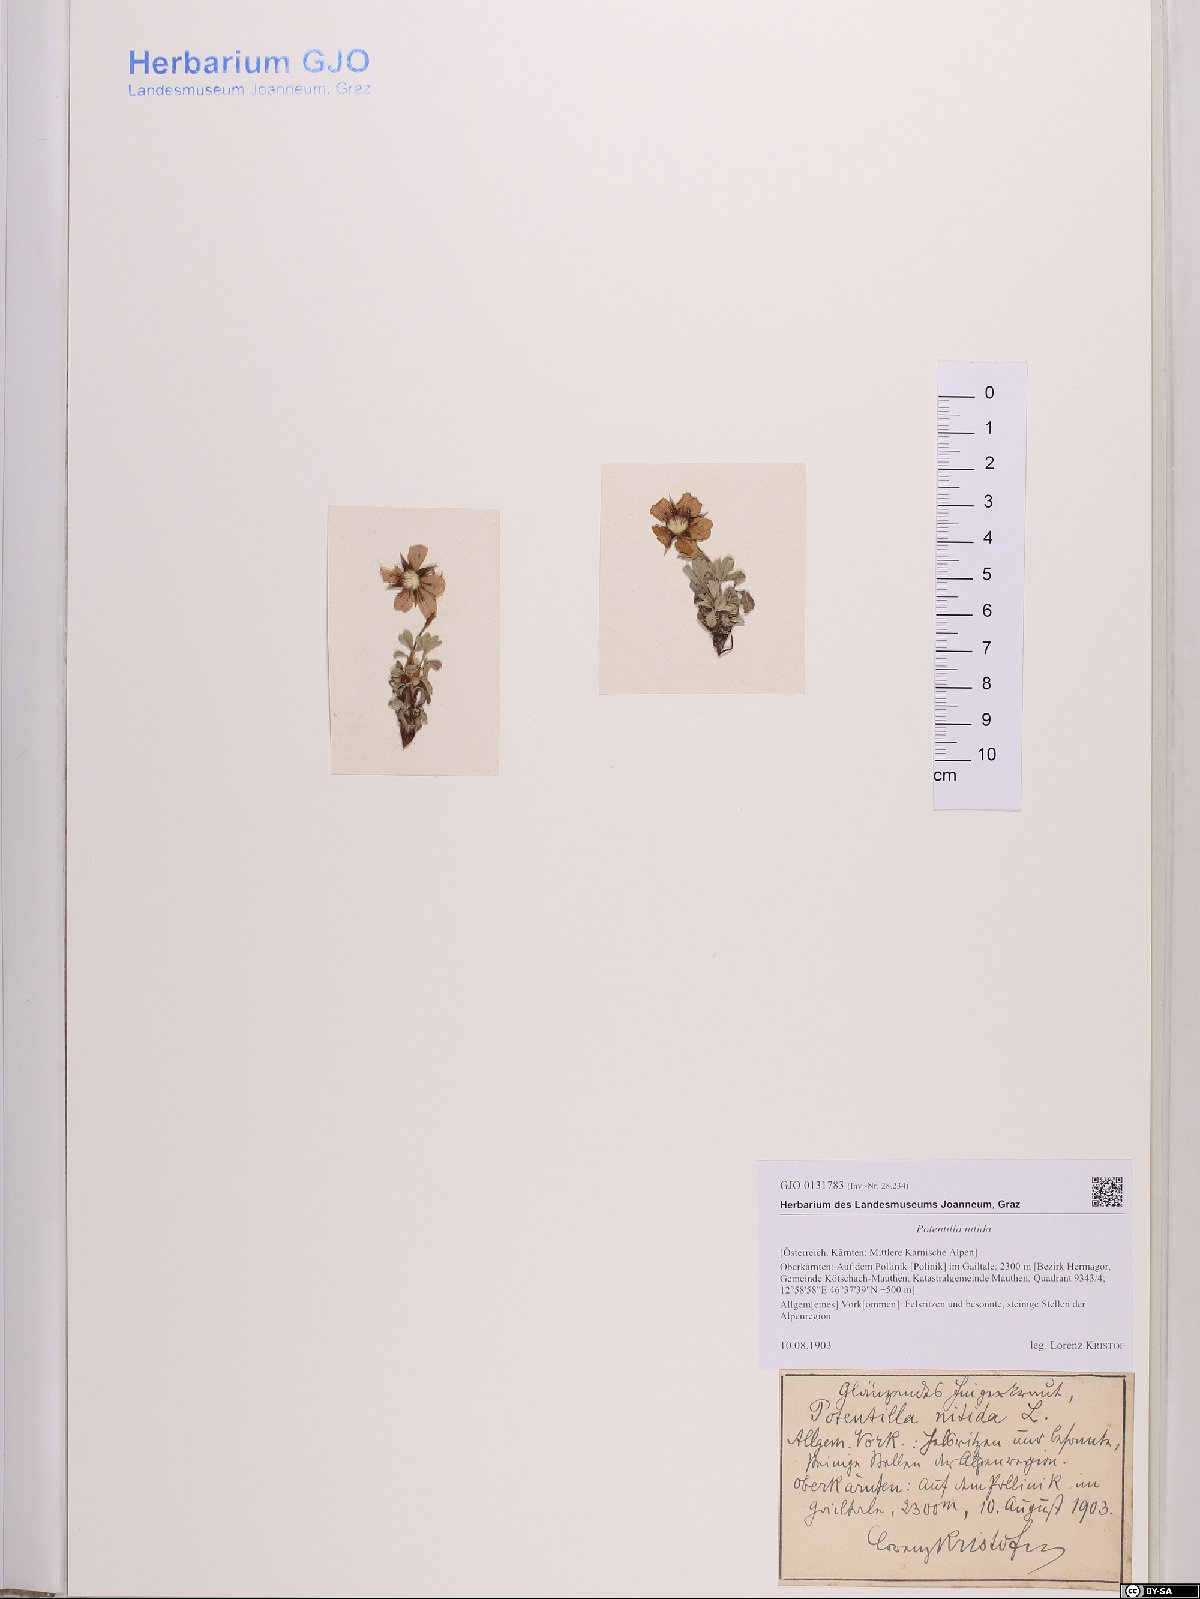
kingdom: Plantae
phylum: Tracheophyta
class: Magnoliopsida
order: Rosales
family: Rosaceae
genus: Potentilla
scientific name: Potentilla nitida
